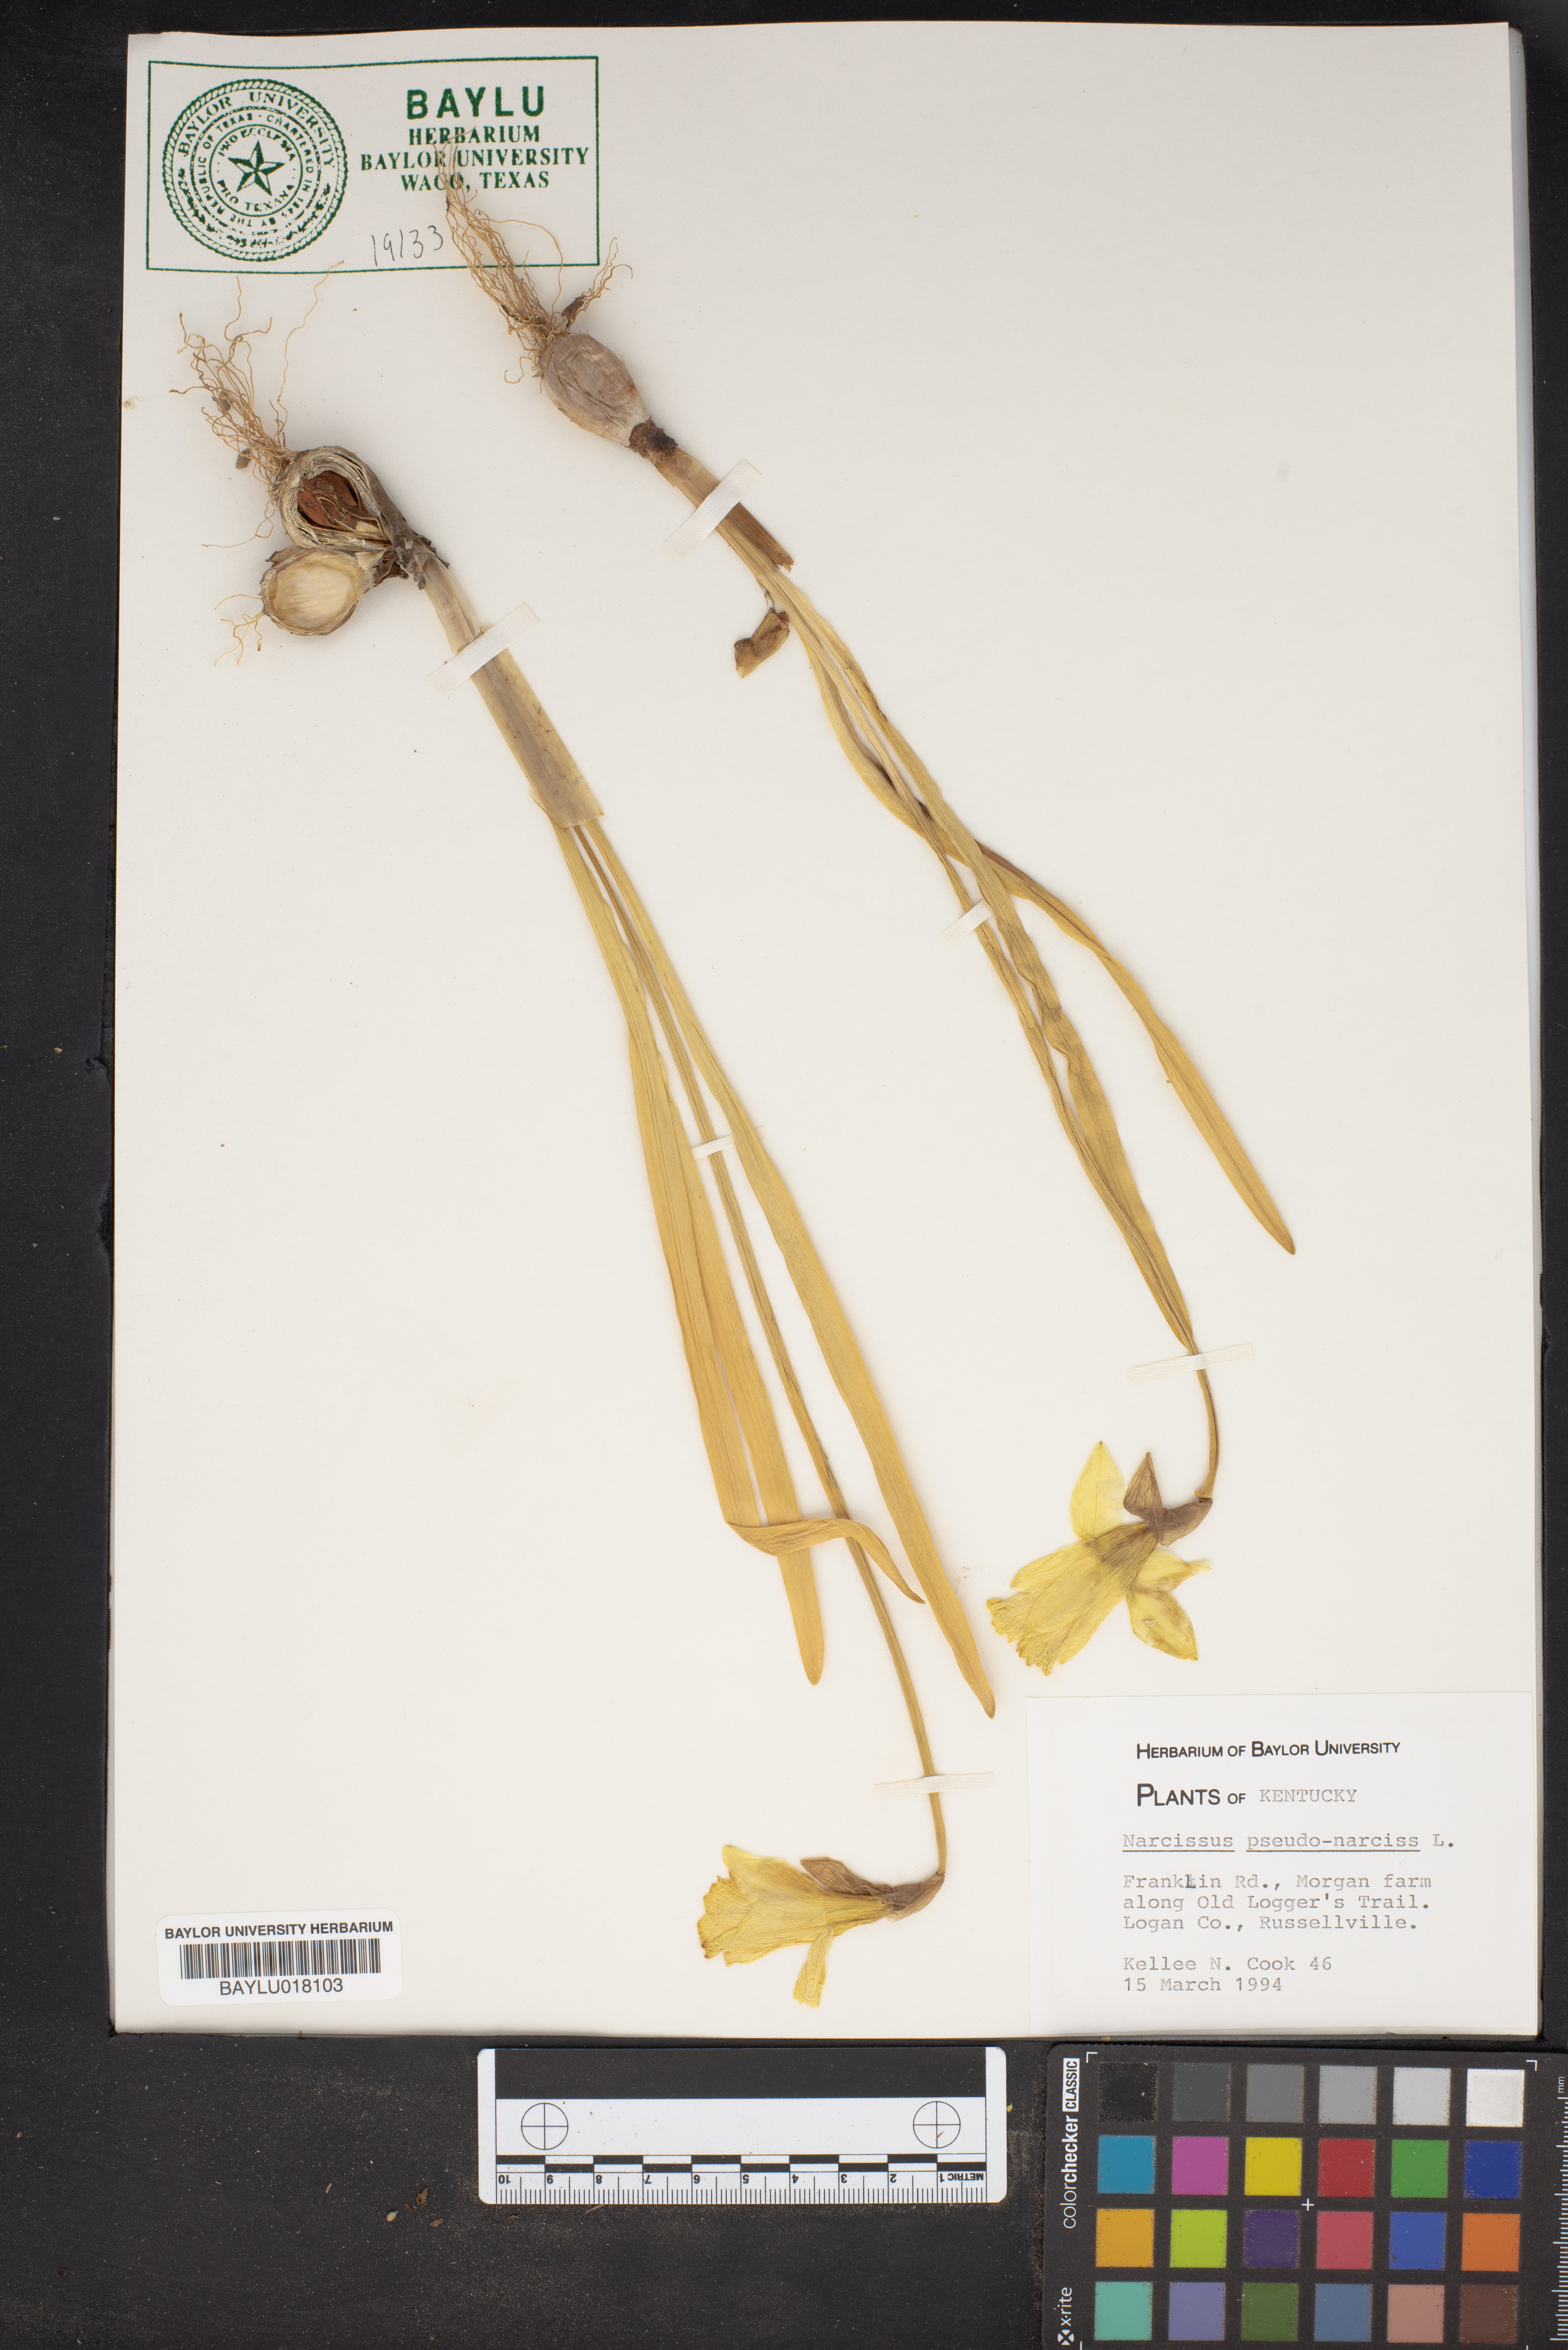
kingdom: Plantae
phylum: Tracheophyta
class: Liliopsida
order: Asparagales
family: Amaryllidaceae
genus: Narcissus
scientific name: Narcissus pseudonarcissus
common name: Daffodil
